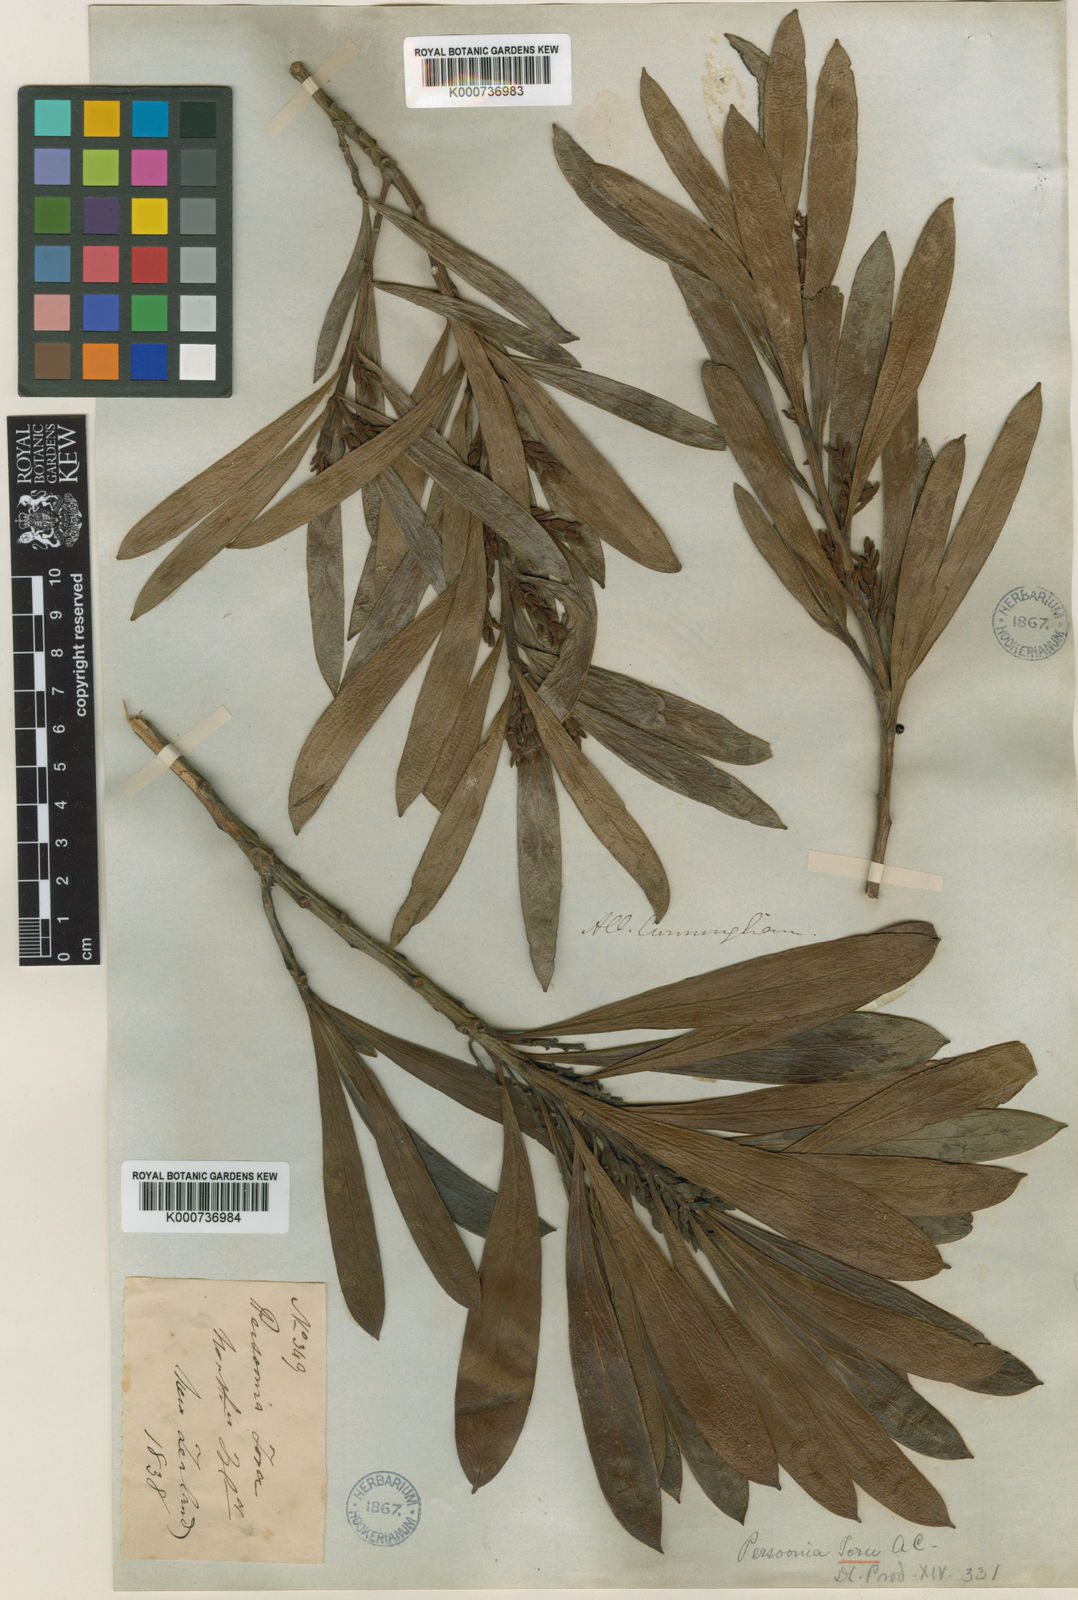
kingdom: Plantae
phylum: Tracheophyta
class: Magnoliopsida
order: Proteales
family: Proteaceae
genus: Toronia
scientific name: Toronia toru
